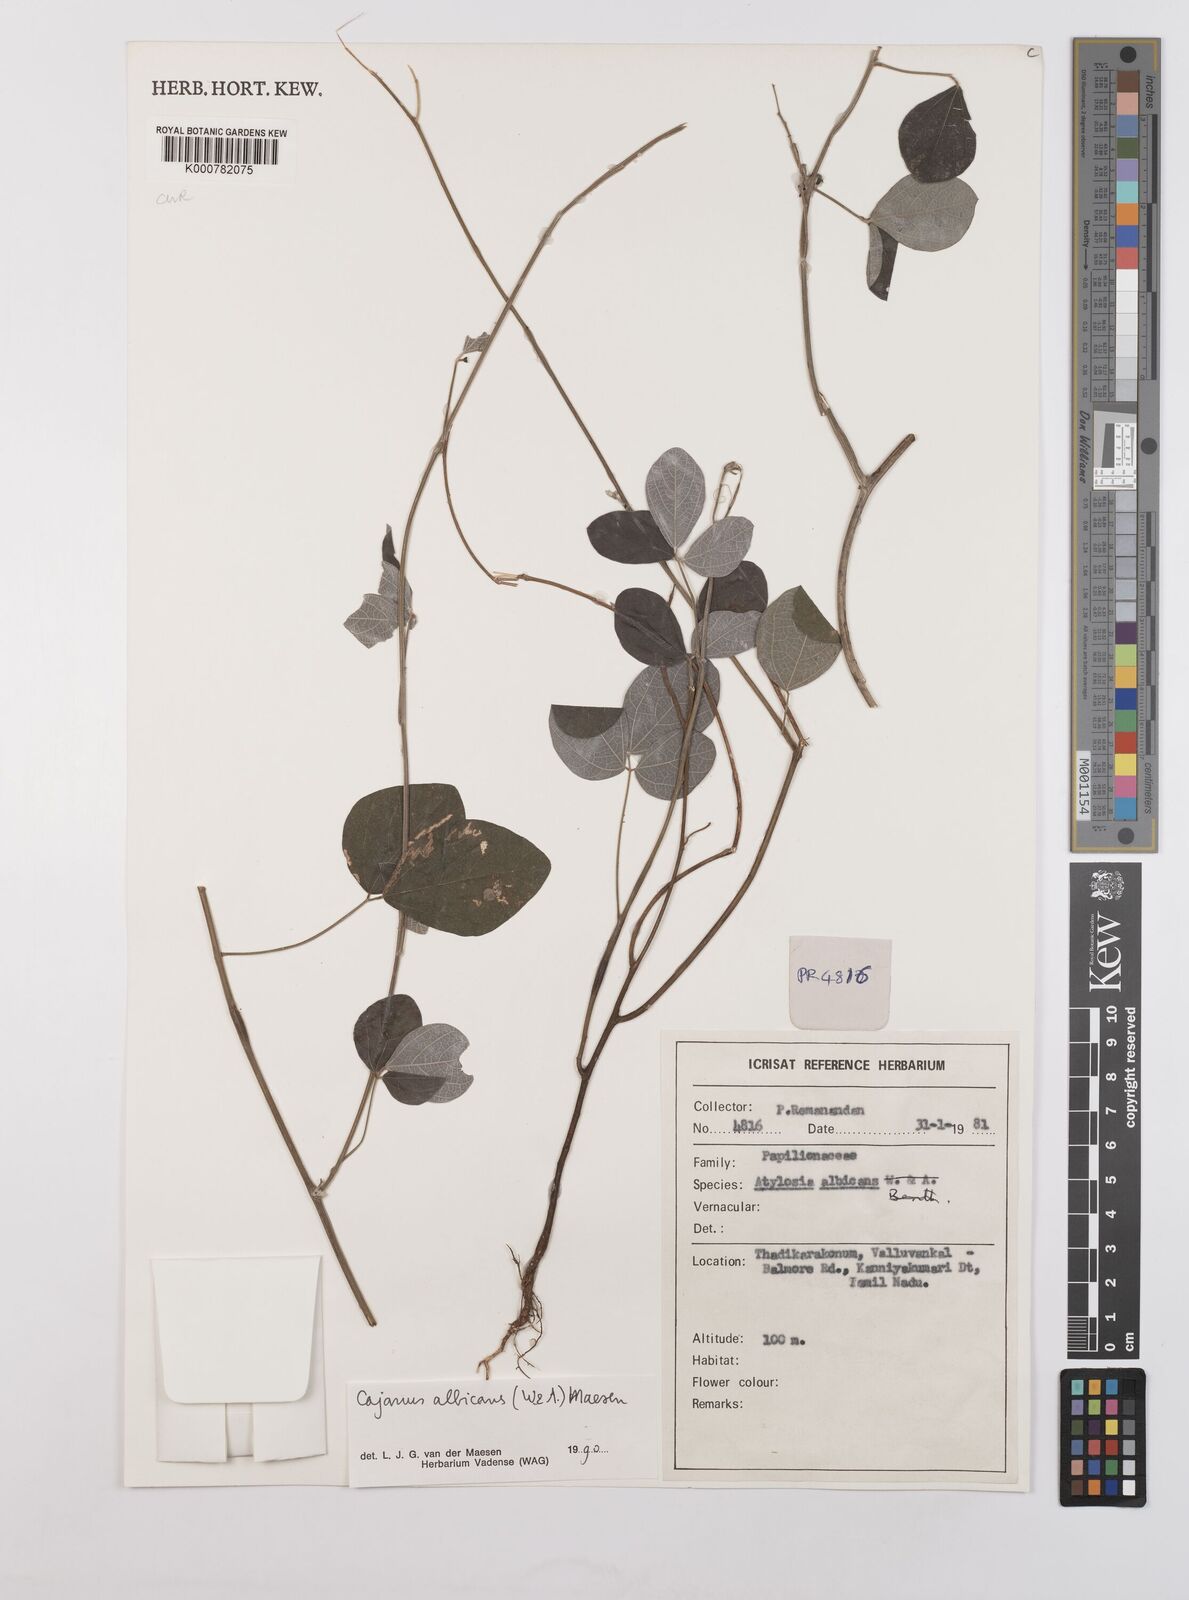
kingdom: Plantae
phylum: Tracheophyta
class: Magnoliopsida
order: Fabales
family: Fabaceae
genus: Cajanus
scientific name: Cajanus albicans
